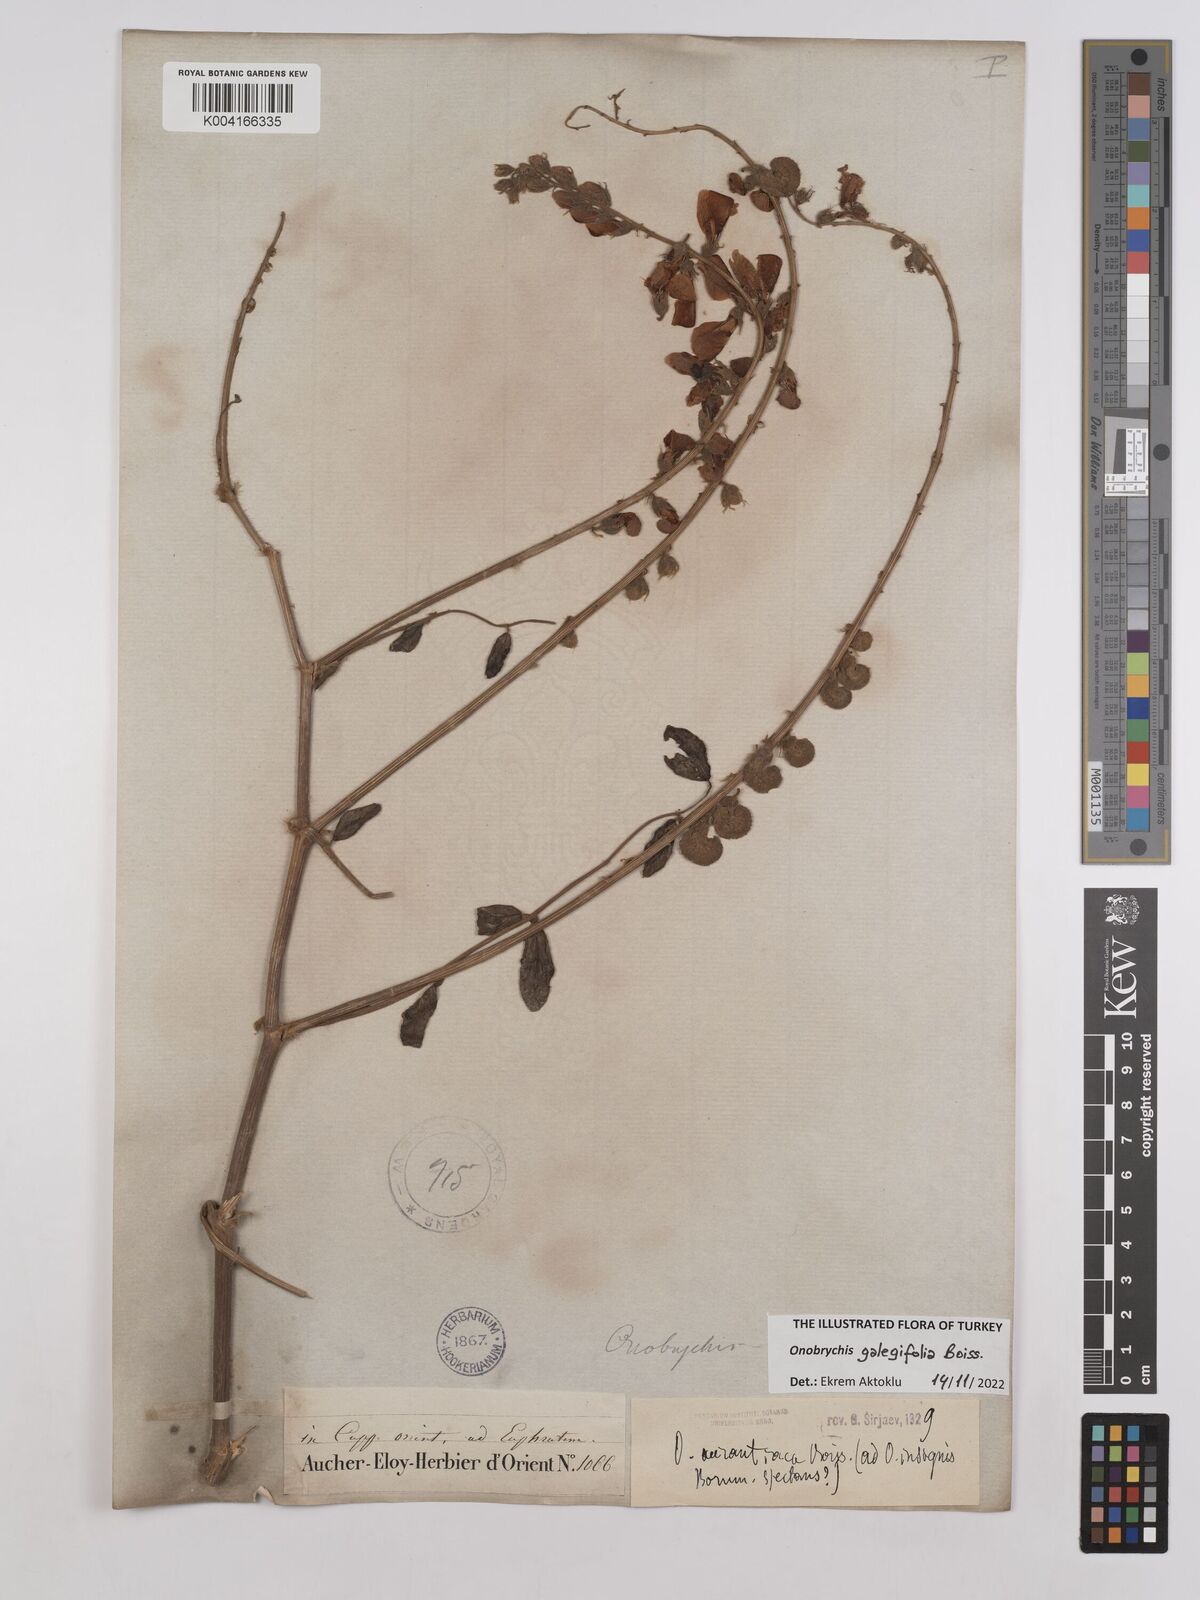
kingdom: Plantae
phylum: Tracheophyta
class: Magnoliopsida
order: Fabales
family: Fabaceae
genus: Onobrychis
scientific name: Onobrychis galegifolia
